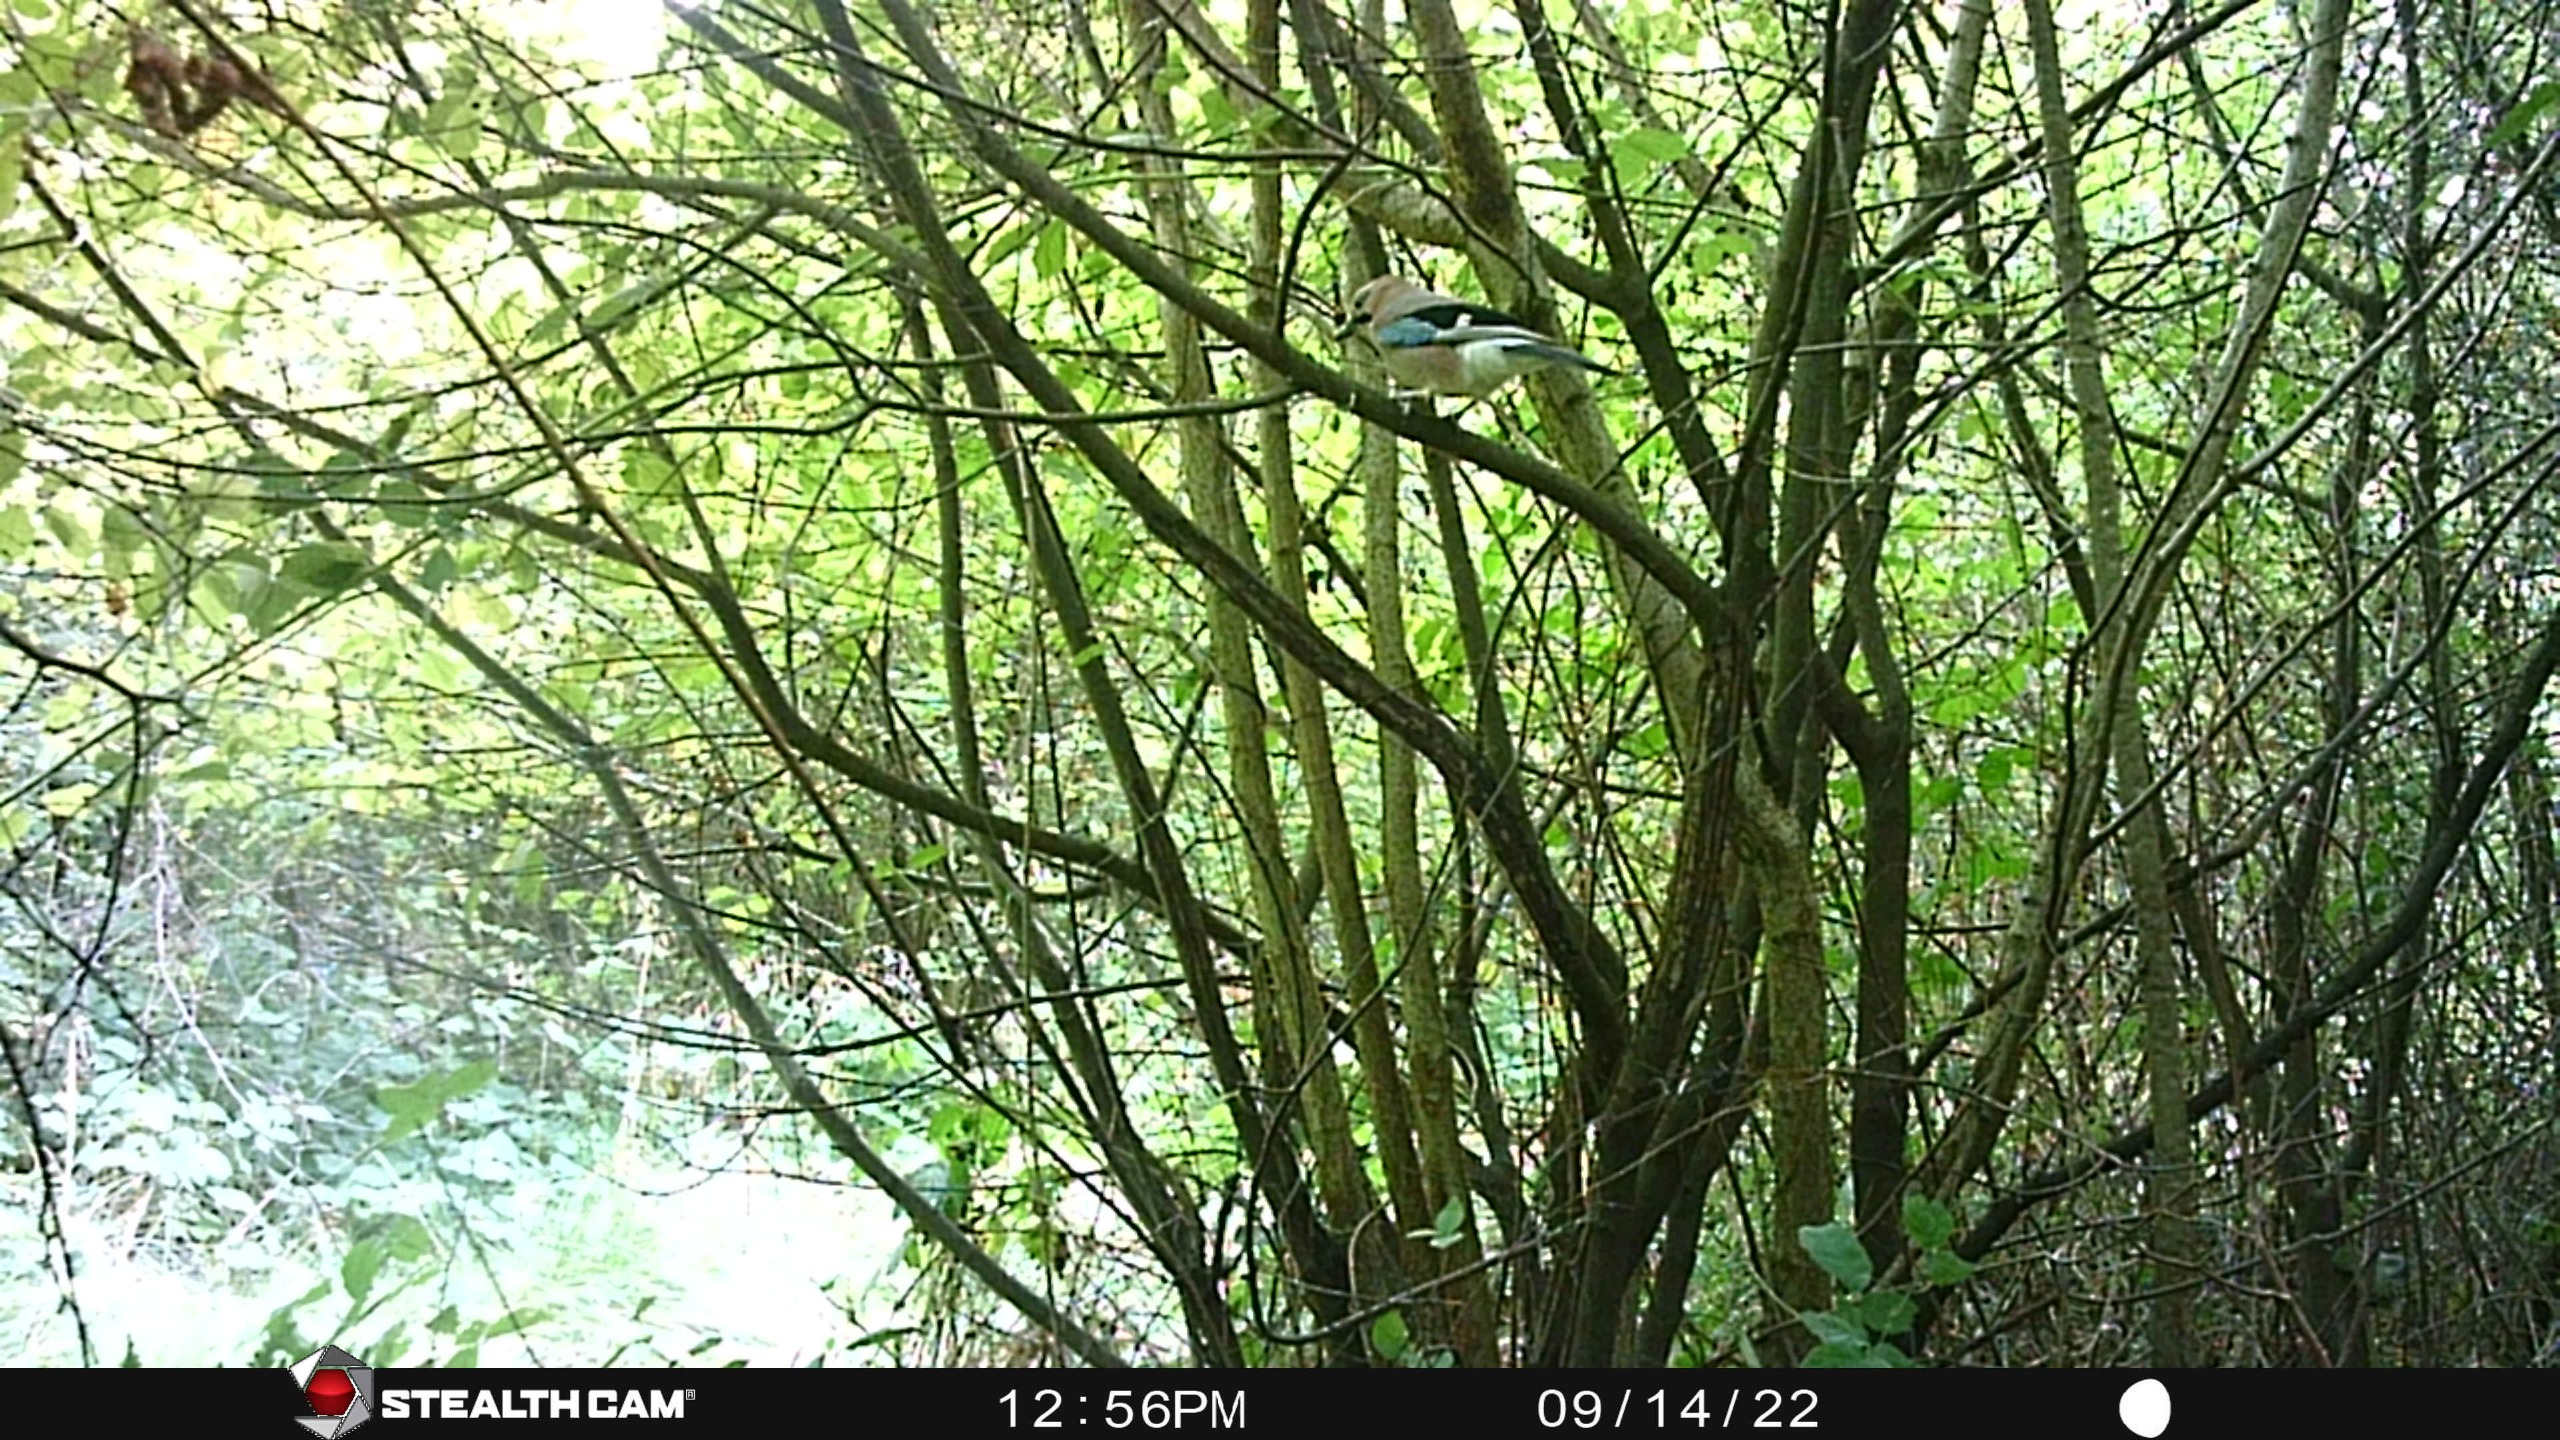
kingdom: Animalia
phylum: Chordata
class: Aves
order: Passeriformes
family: Corvidae
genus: Garrulus
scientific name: Garrulus glandarius
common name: Skovskade
